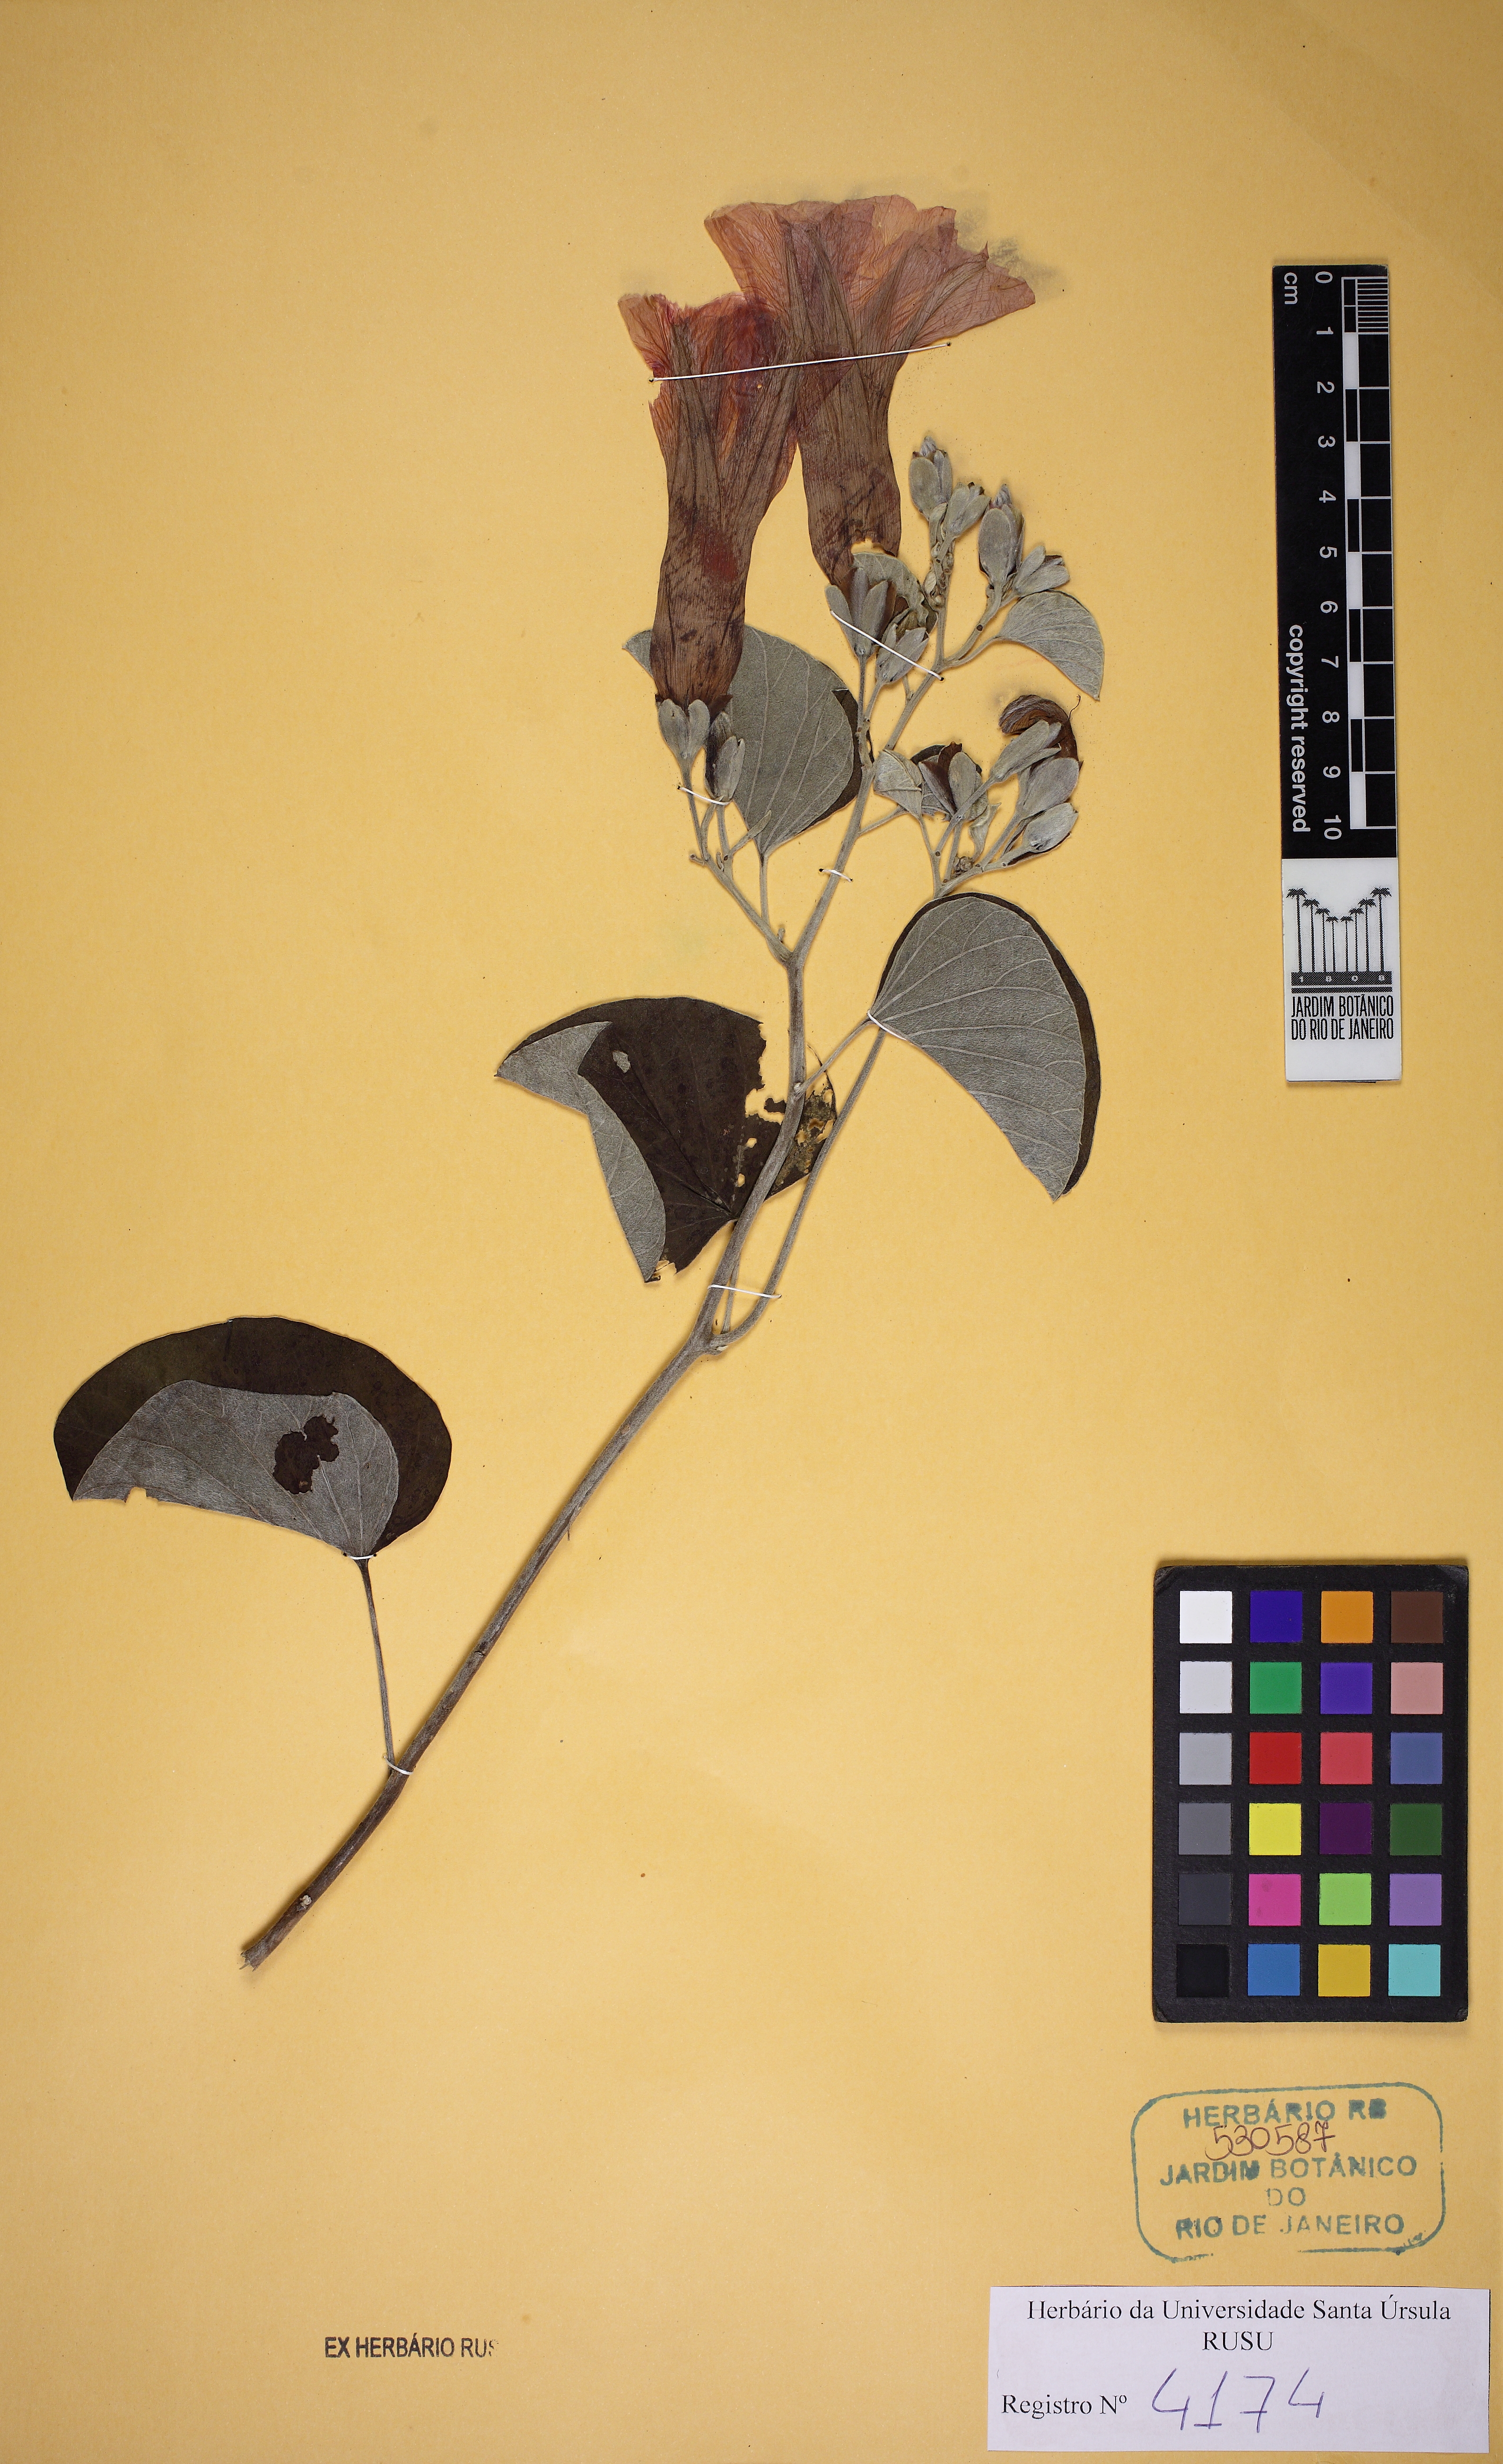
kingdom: Plantae
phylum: Tracheophyta
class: Magnoliopsida
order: Solanales
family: Convolvulaceae
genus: Ipomoea
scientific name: Ipomoea sericosepala
